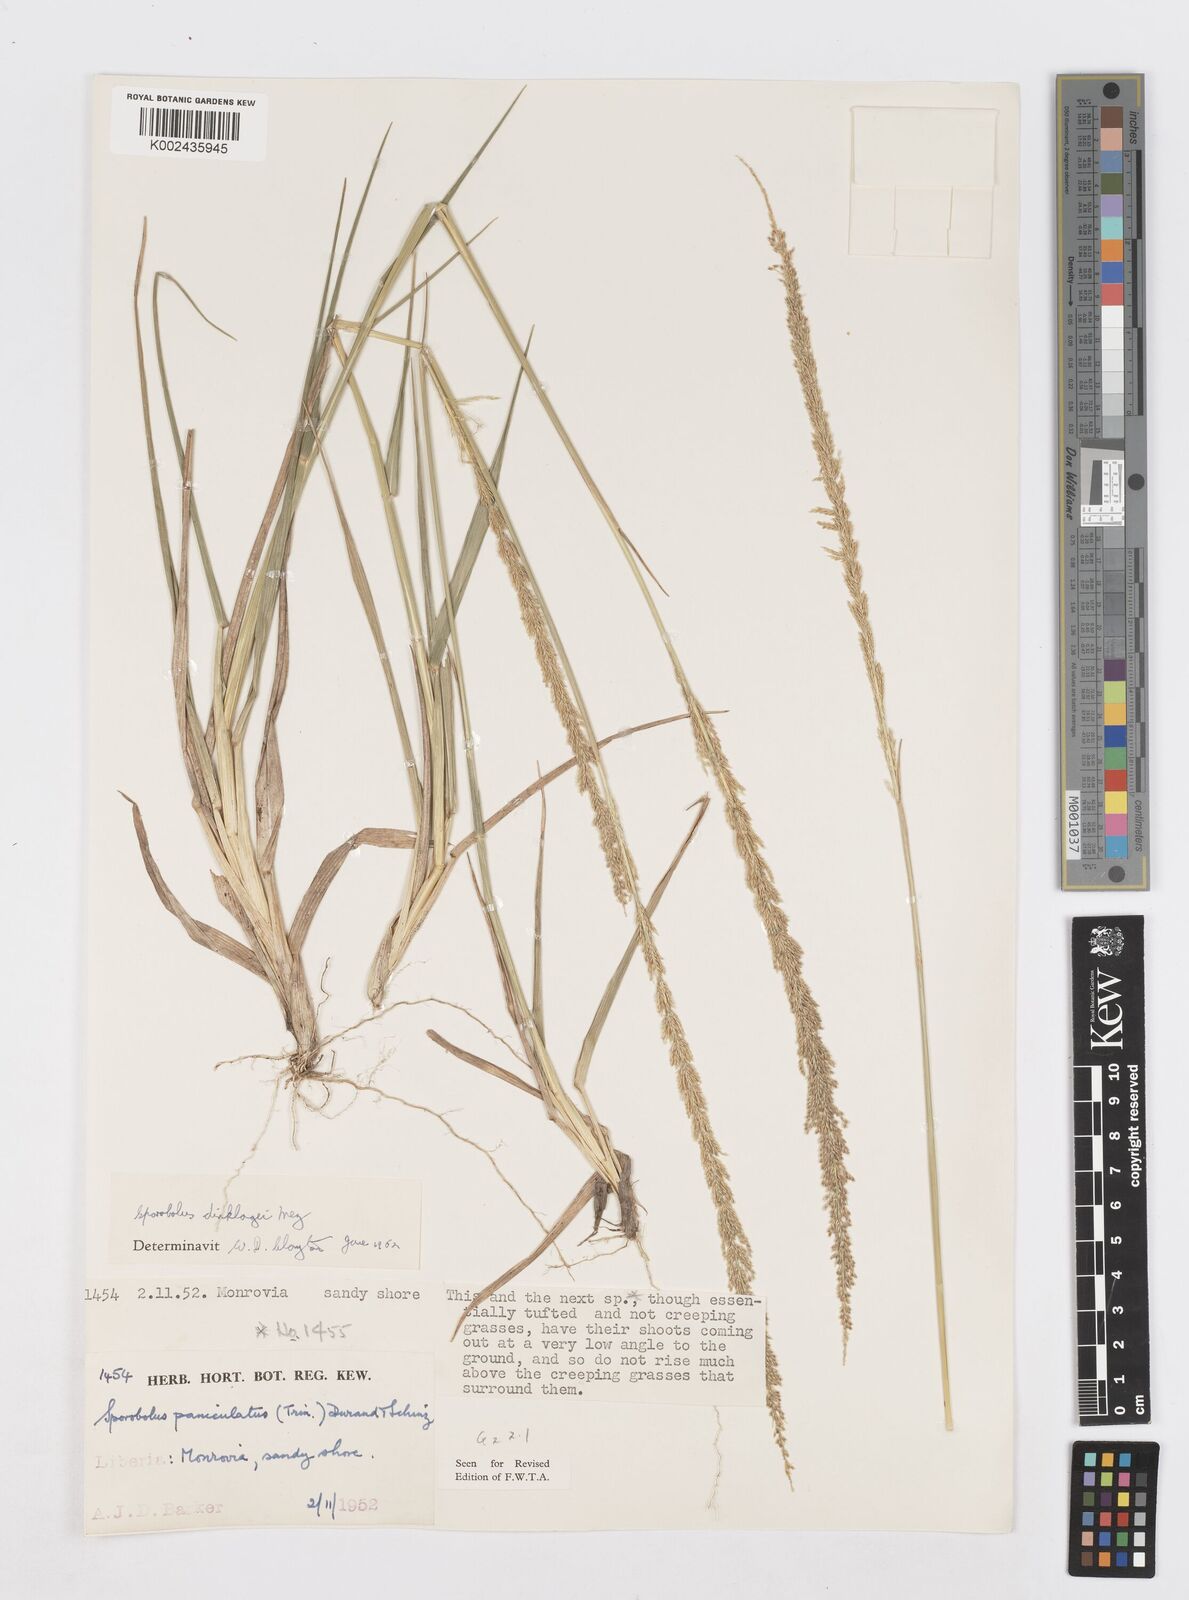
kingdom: Plantae
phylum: Tracheophyta
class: Liliopsida
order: Poales
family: Poaceae
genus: Sporobolus
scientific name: Sporobolus dinklagei
